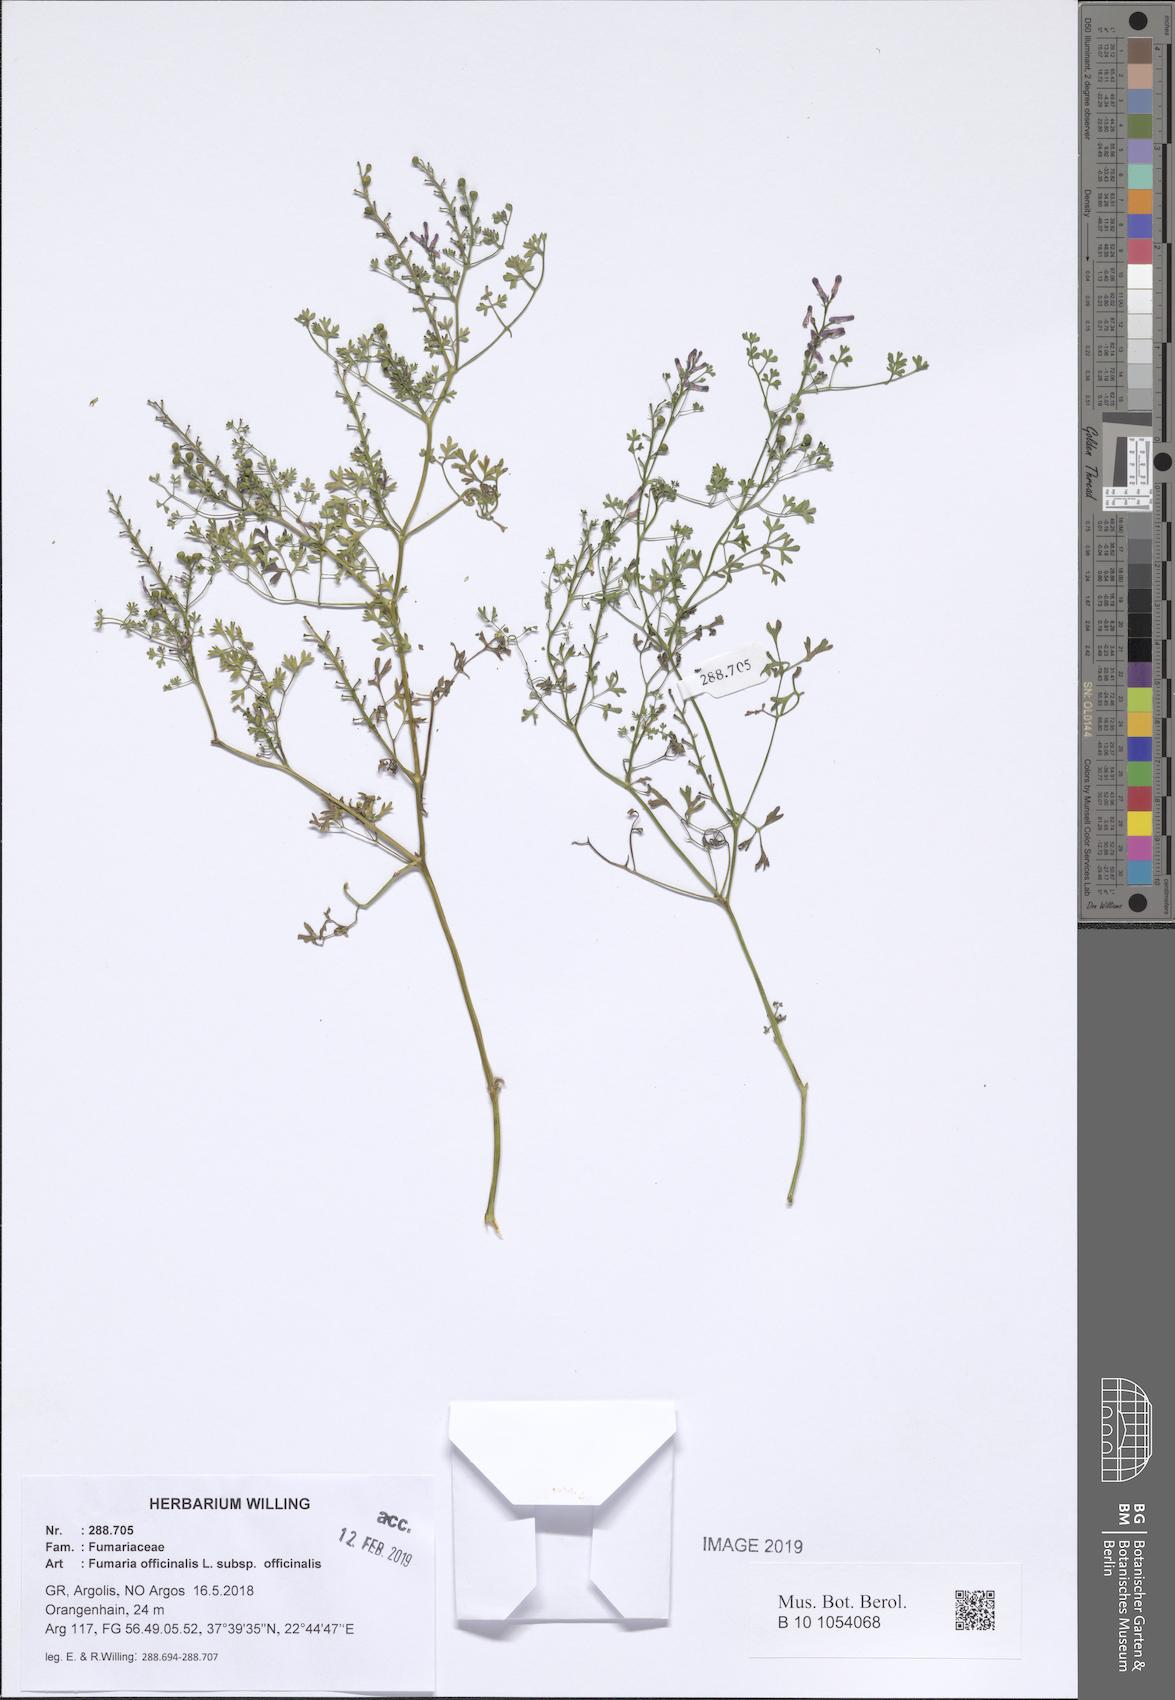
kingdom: Plantae
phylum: Tracheophyta
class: Magnoliopsida
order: Ranunculales
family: Papaveraceae
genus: Fumaria
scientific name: Fumaria officinalis
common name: Common fumitory
